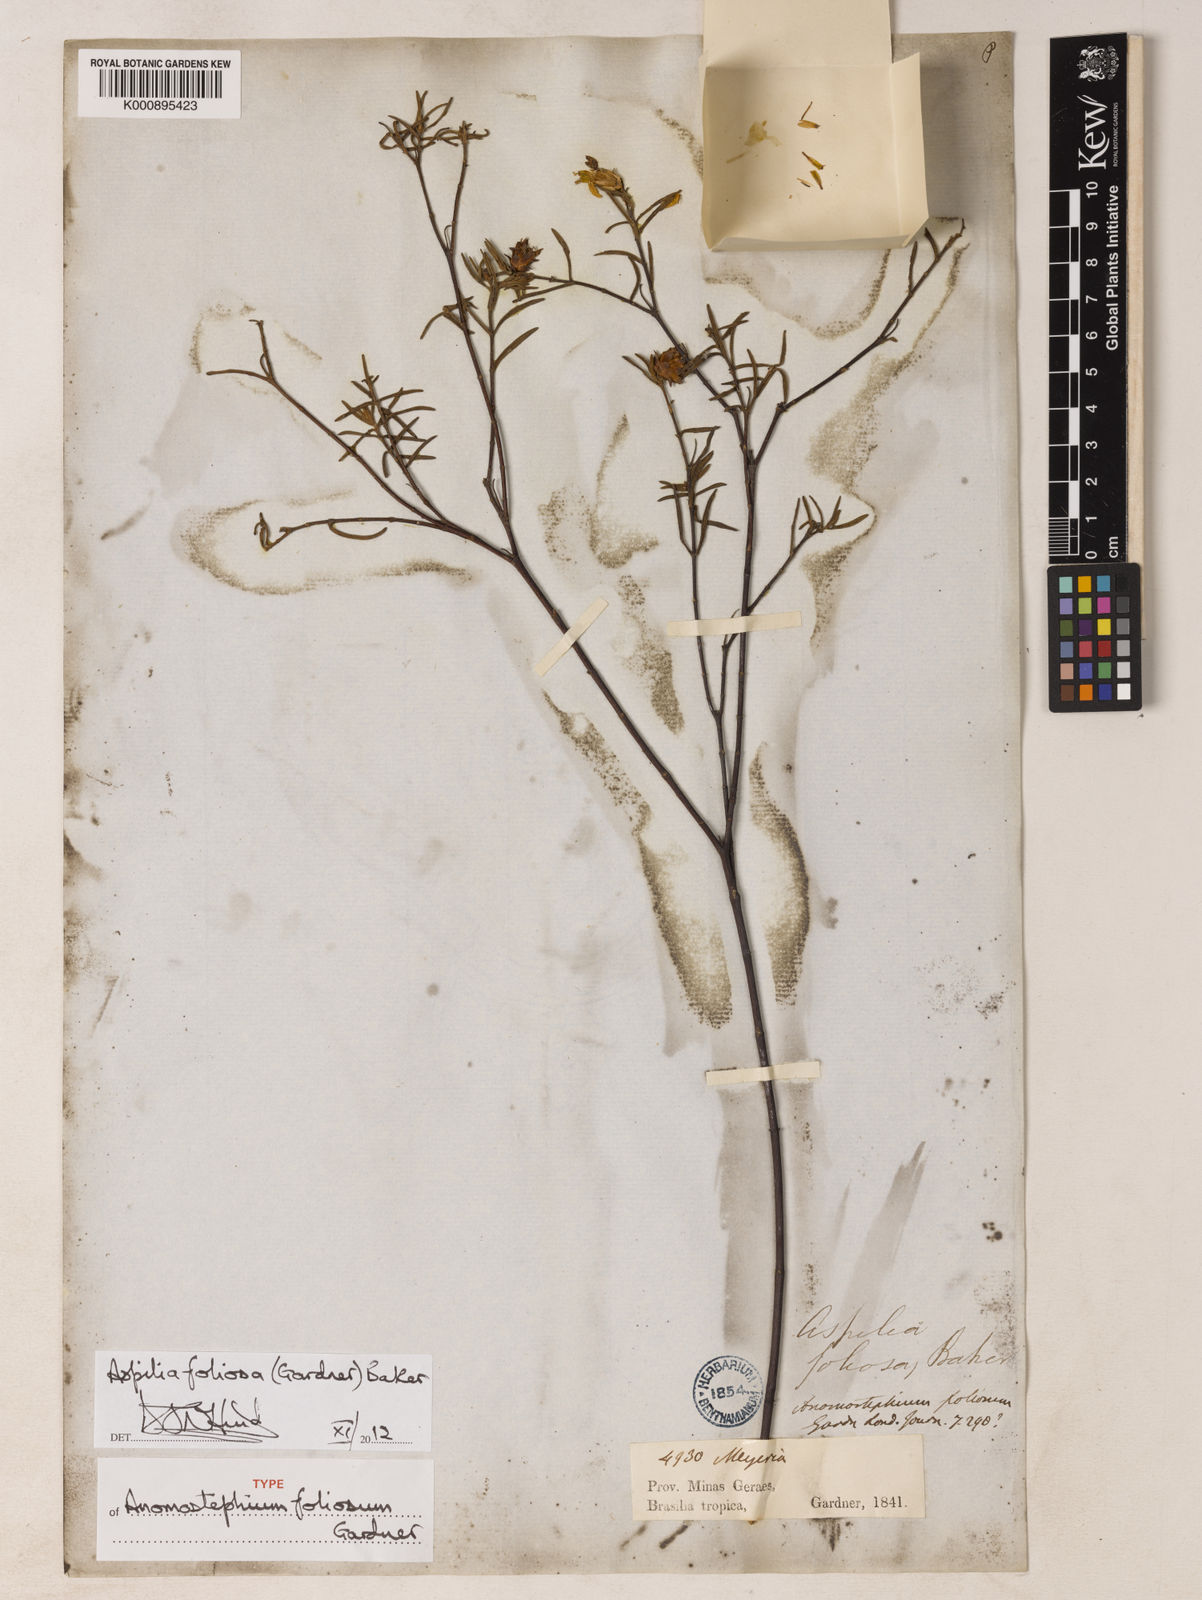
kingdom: Plantae
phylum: Tracheophyta
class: Magnoliopsida
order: Asterales
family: Asteraceae
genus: Aspilia
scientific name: Aspilia
